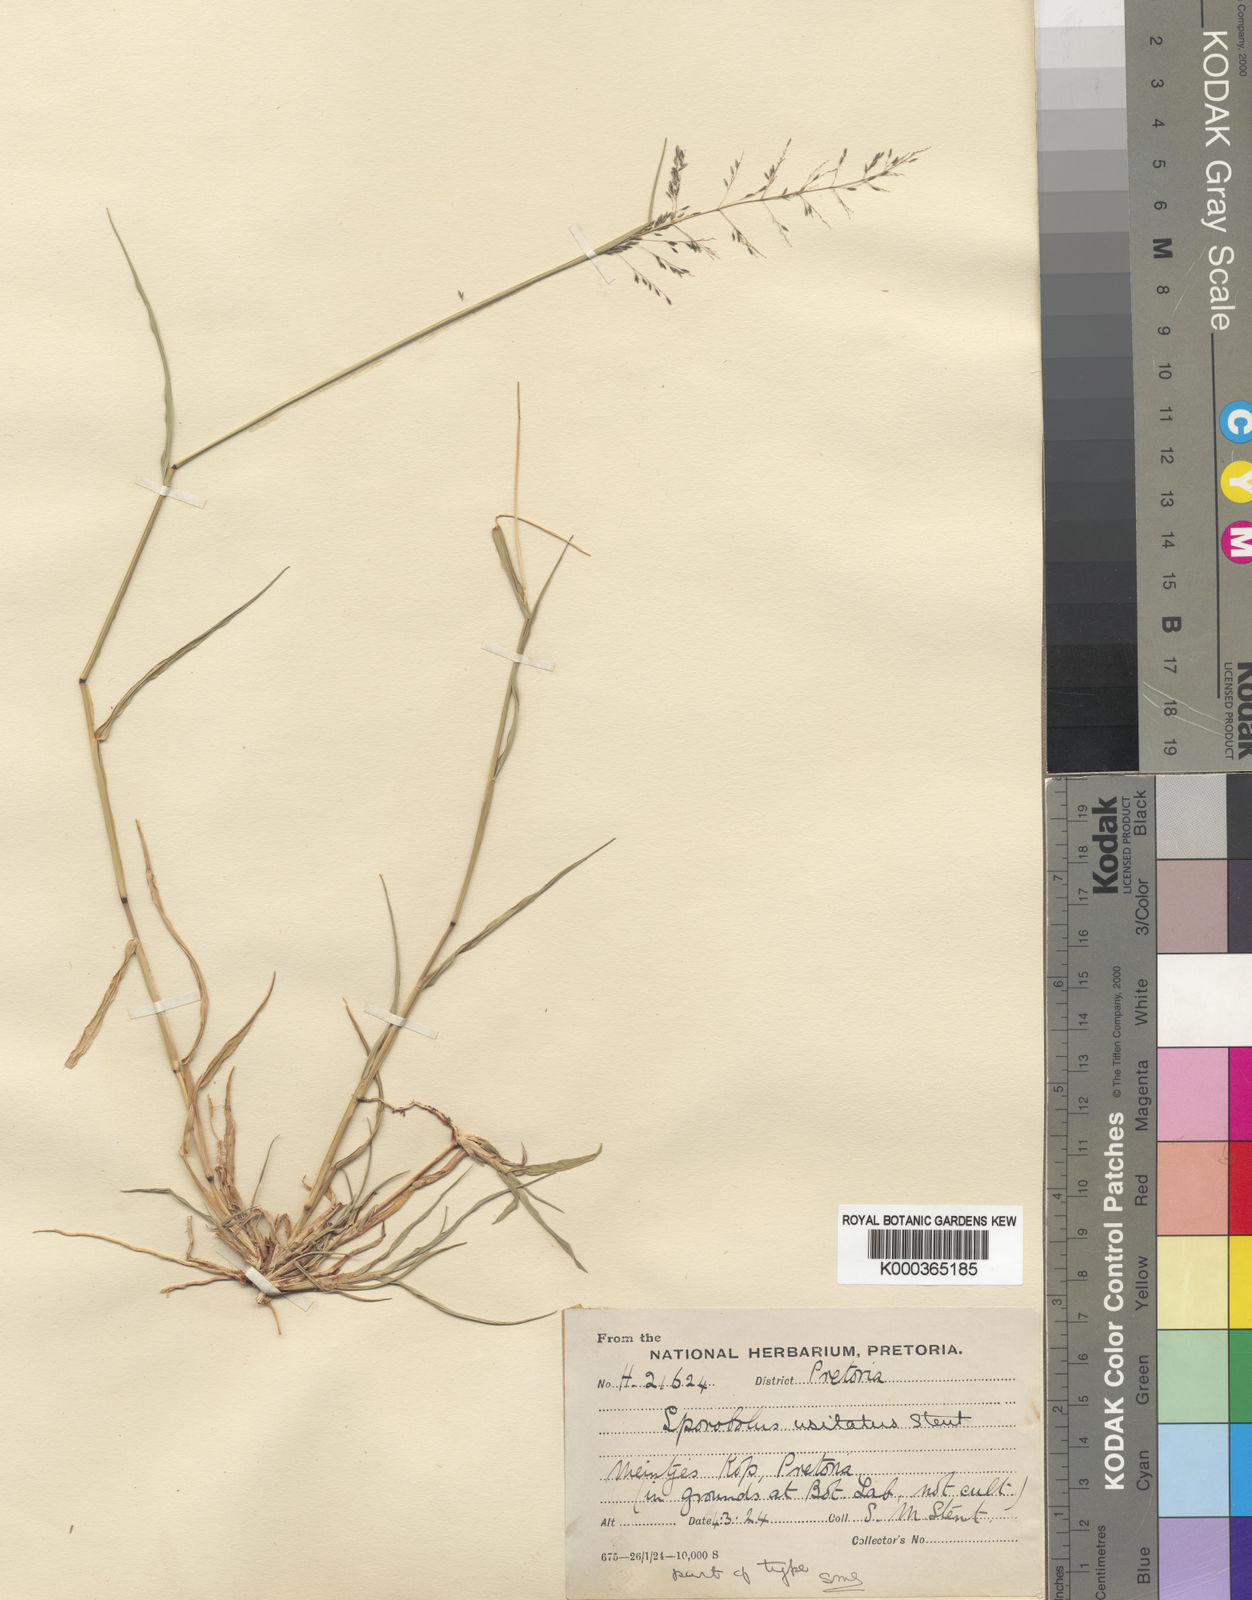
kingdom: Plantae
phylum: Tracheophyta
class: Liliopsida
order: Poales
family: Poaceae
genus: Sporobolus
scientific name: Sporobolus ioclados
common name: Pan dropseed
